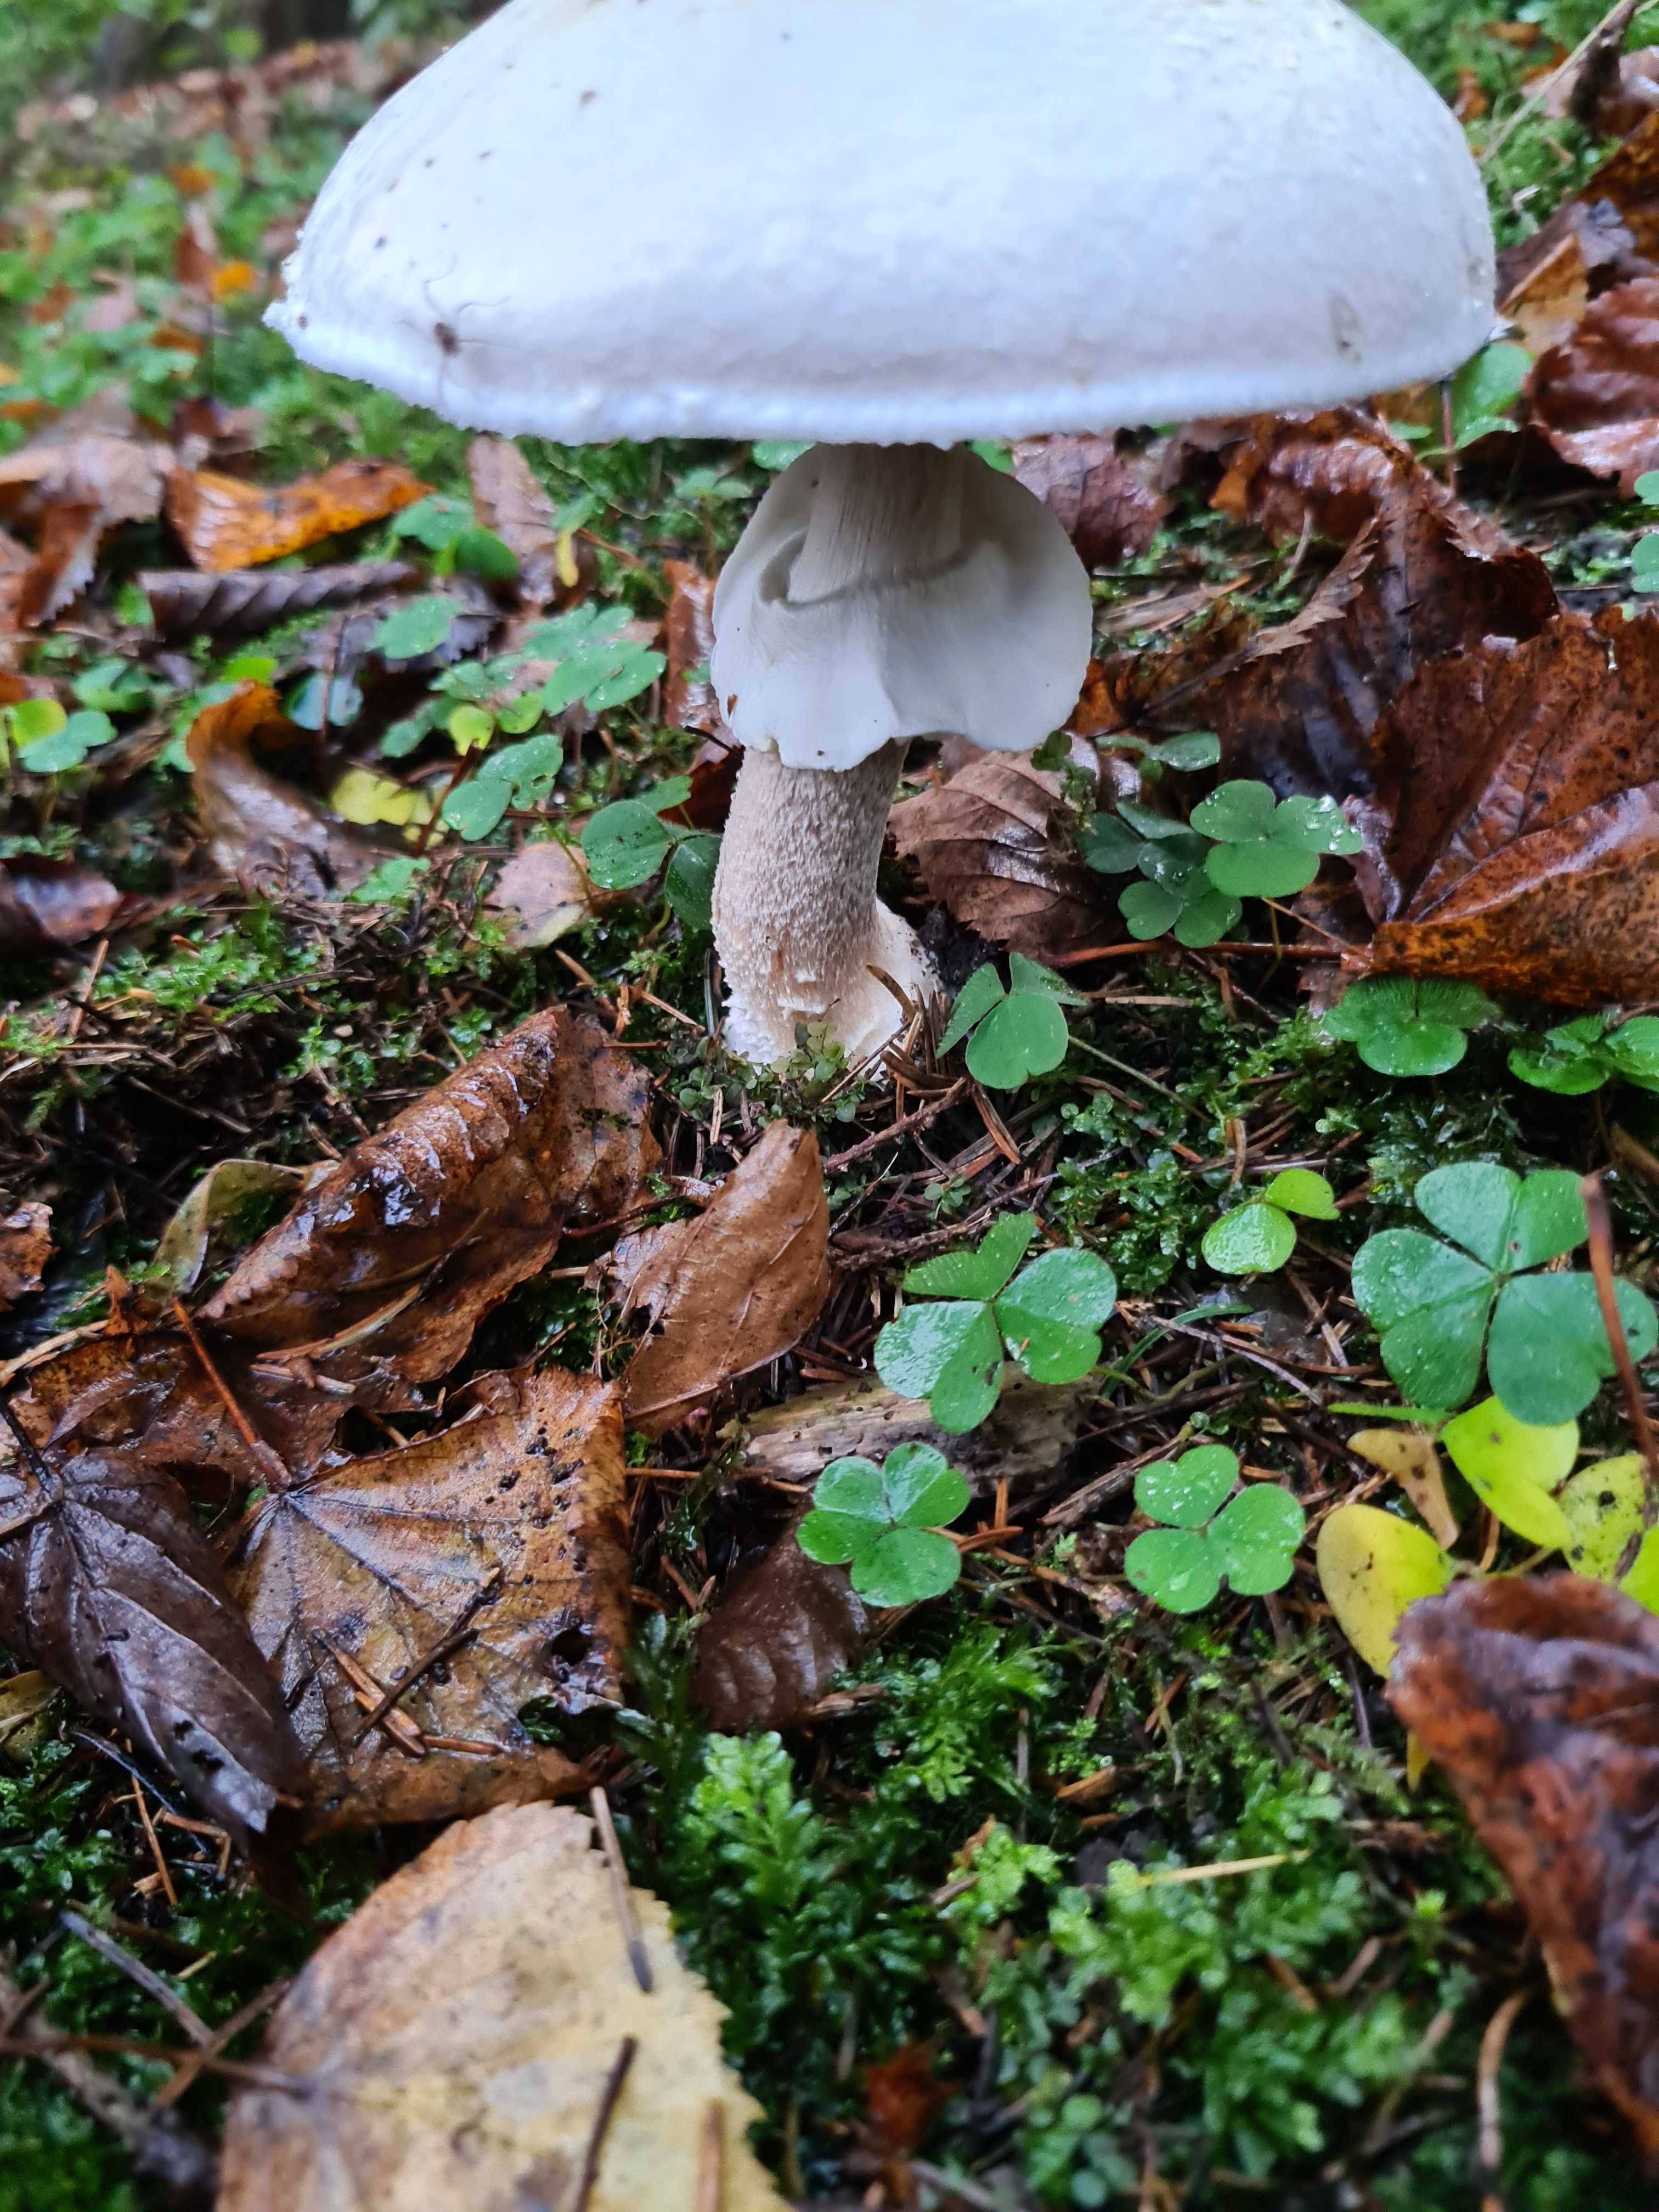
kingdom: Fungi
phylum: Basidiomycota
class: Agaricomycetes
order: Agaricales
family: Agaricaceae
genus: Agaricus
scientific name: Agaricus
